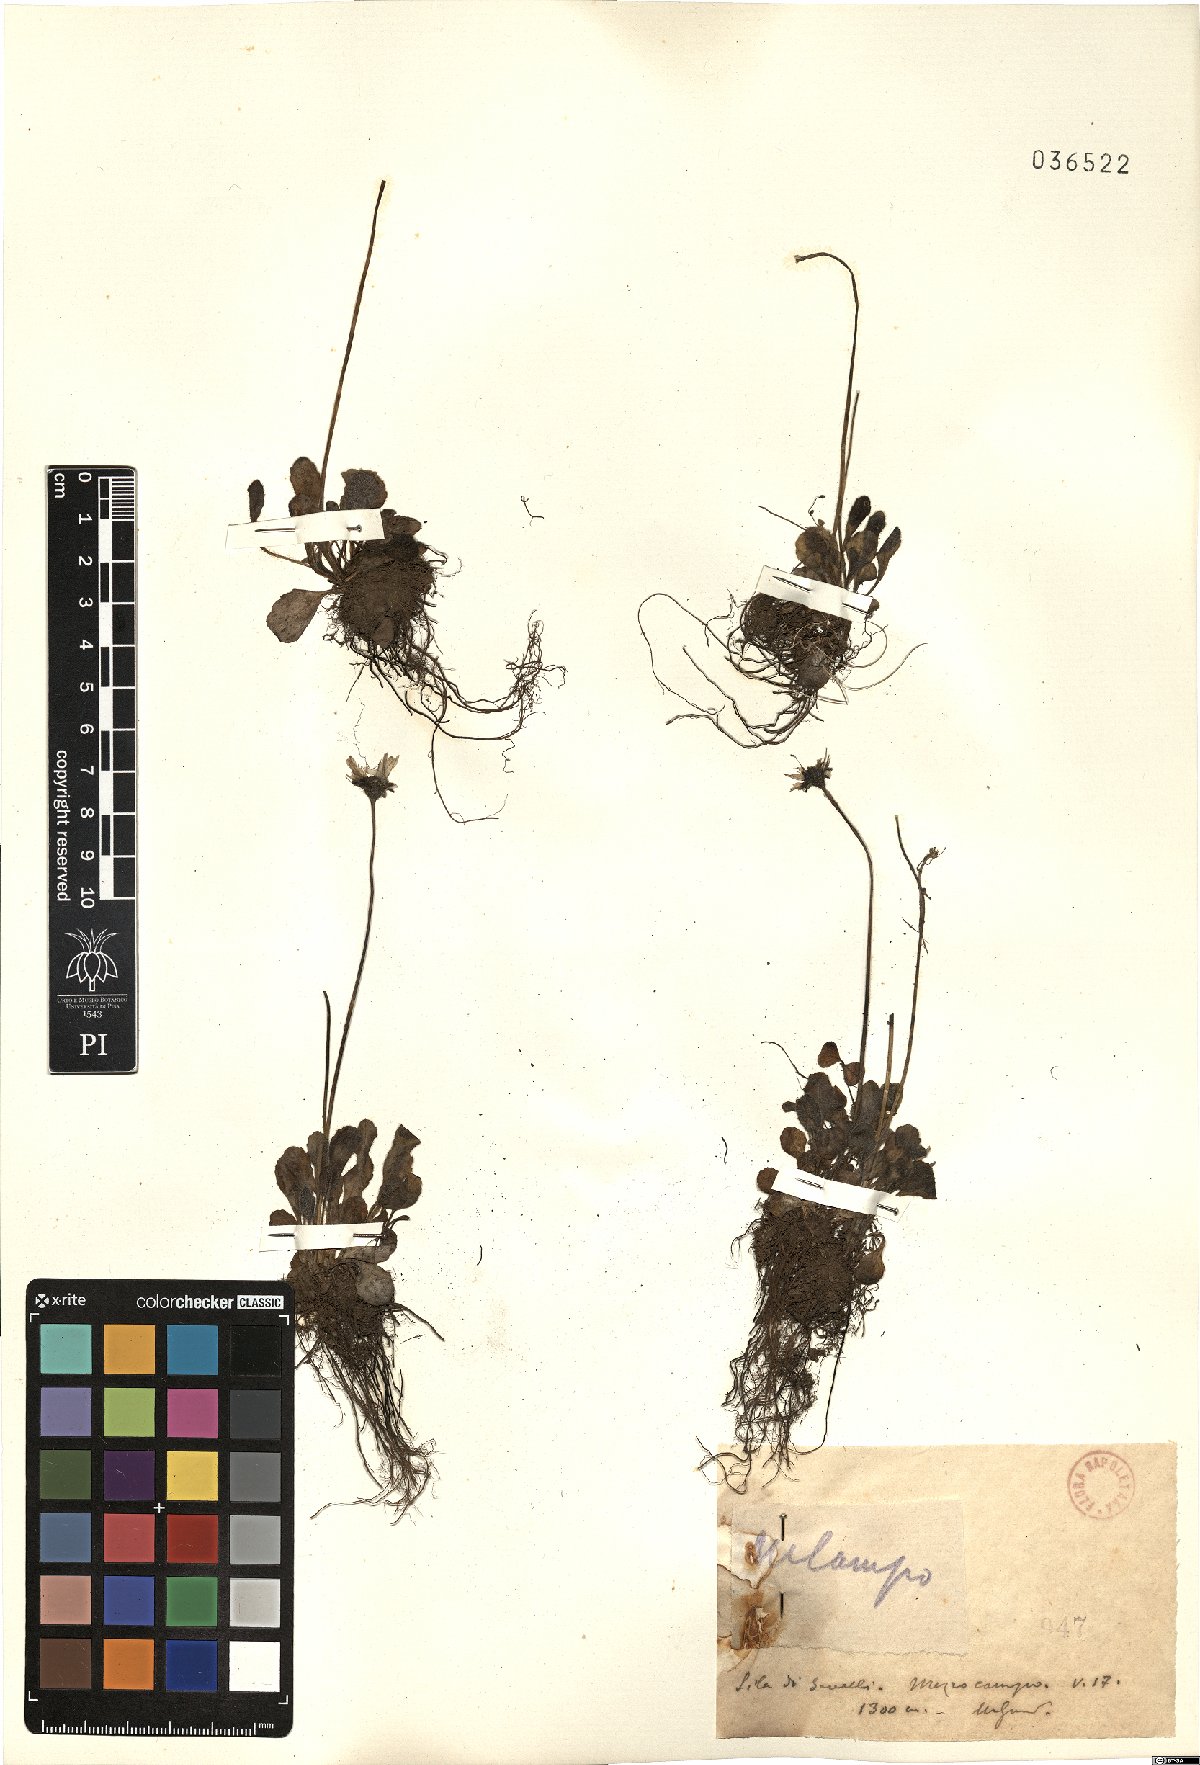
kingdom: Plantae
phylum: Tracheophyta
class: Magnoliopsida
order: Asterales
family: Asteraceae
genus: Bellis
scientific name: Bellis
